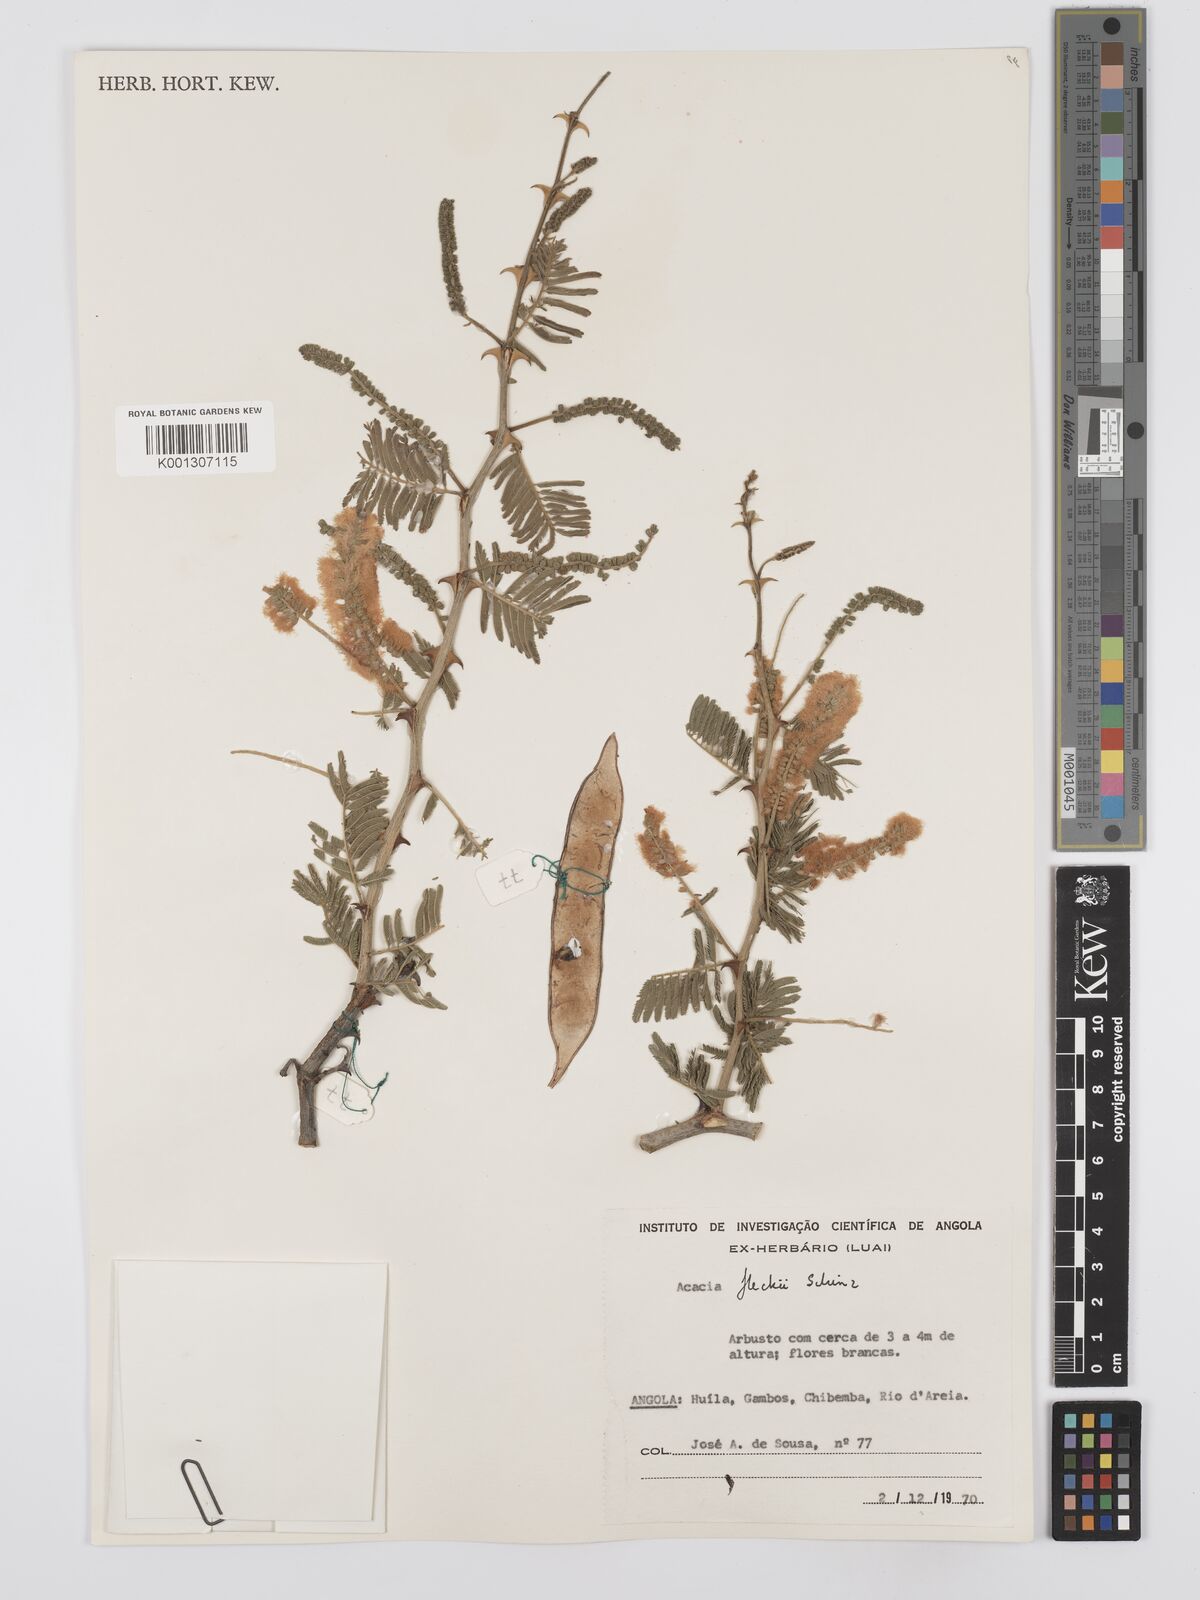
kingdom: Plantae
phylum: Tracheophyta
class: Magnoliopsida
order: Fabales
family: Fabaceae
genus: Senegalia
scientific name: Senegalia fleckii
